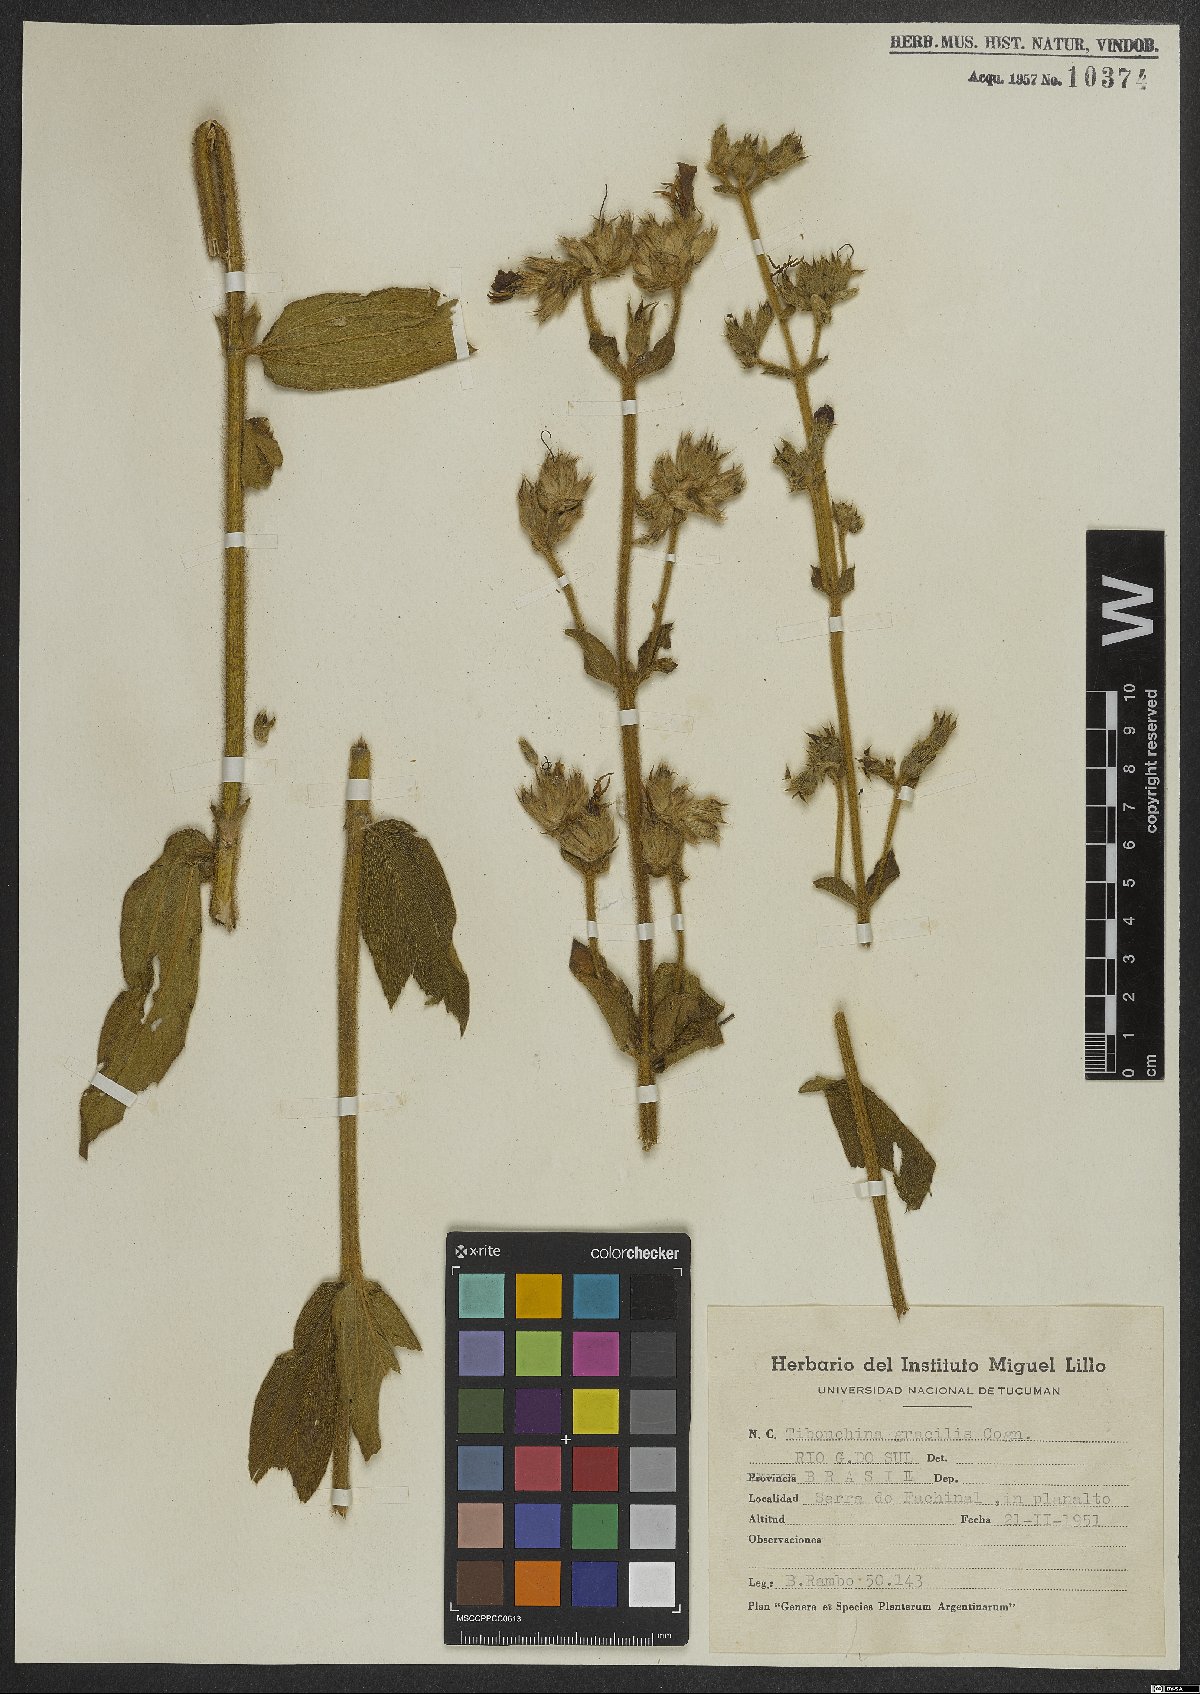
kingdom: Plantae
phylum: Tracheophyta
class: Magnoliopsida
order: Myrtales
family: Melastomataceae
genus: Chaetogastra
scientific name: Chaetogastra gracilis
